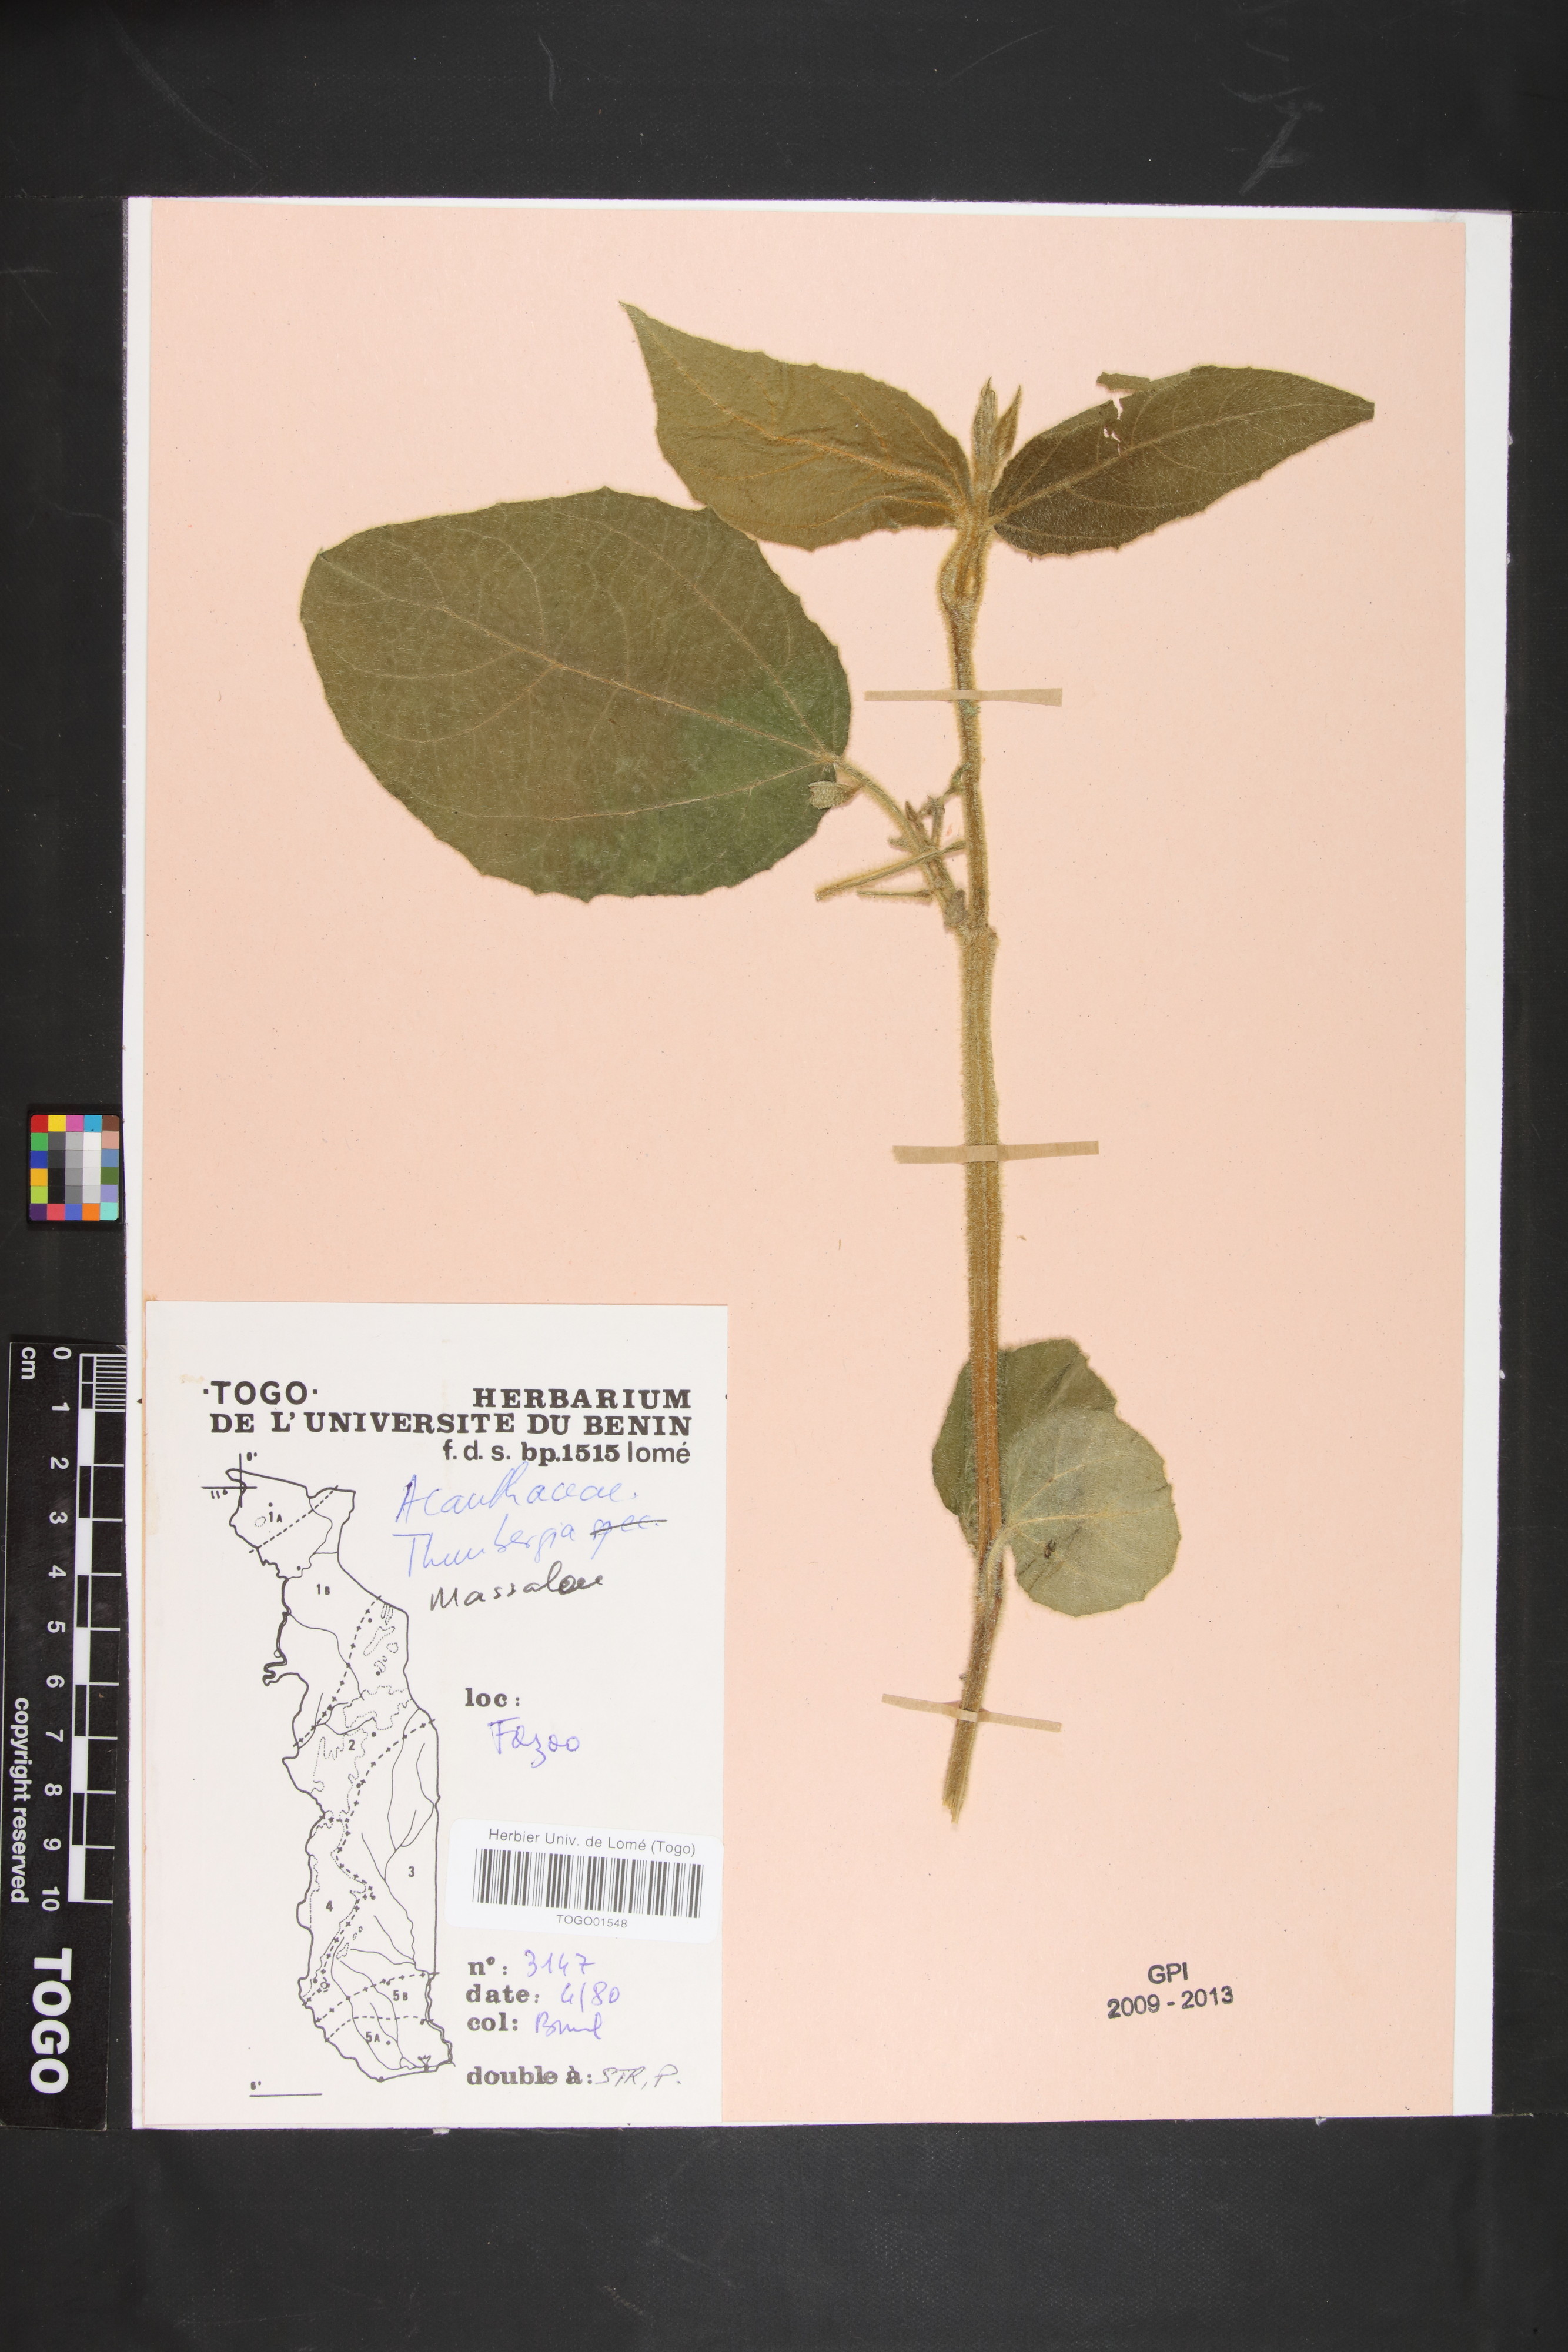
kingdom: Plantae
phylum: Tracheophyta
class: Magnoliopsida
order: Lamiales
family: Acanthaceae
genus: Thunbergia
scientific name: Thunbergia
